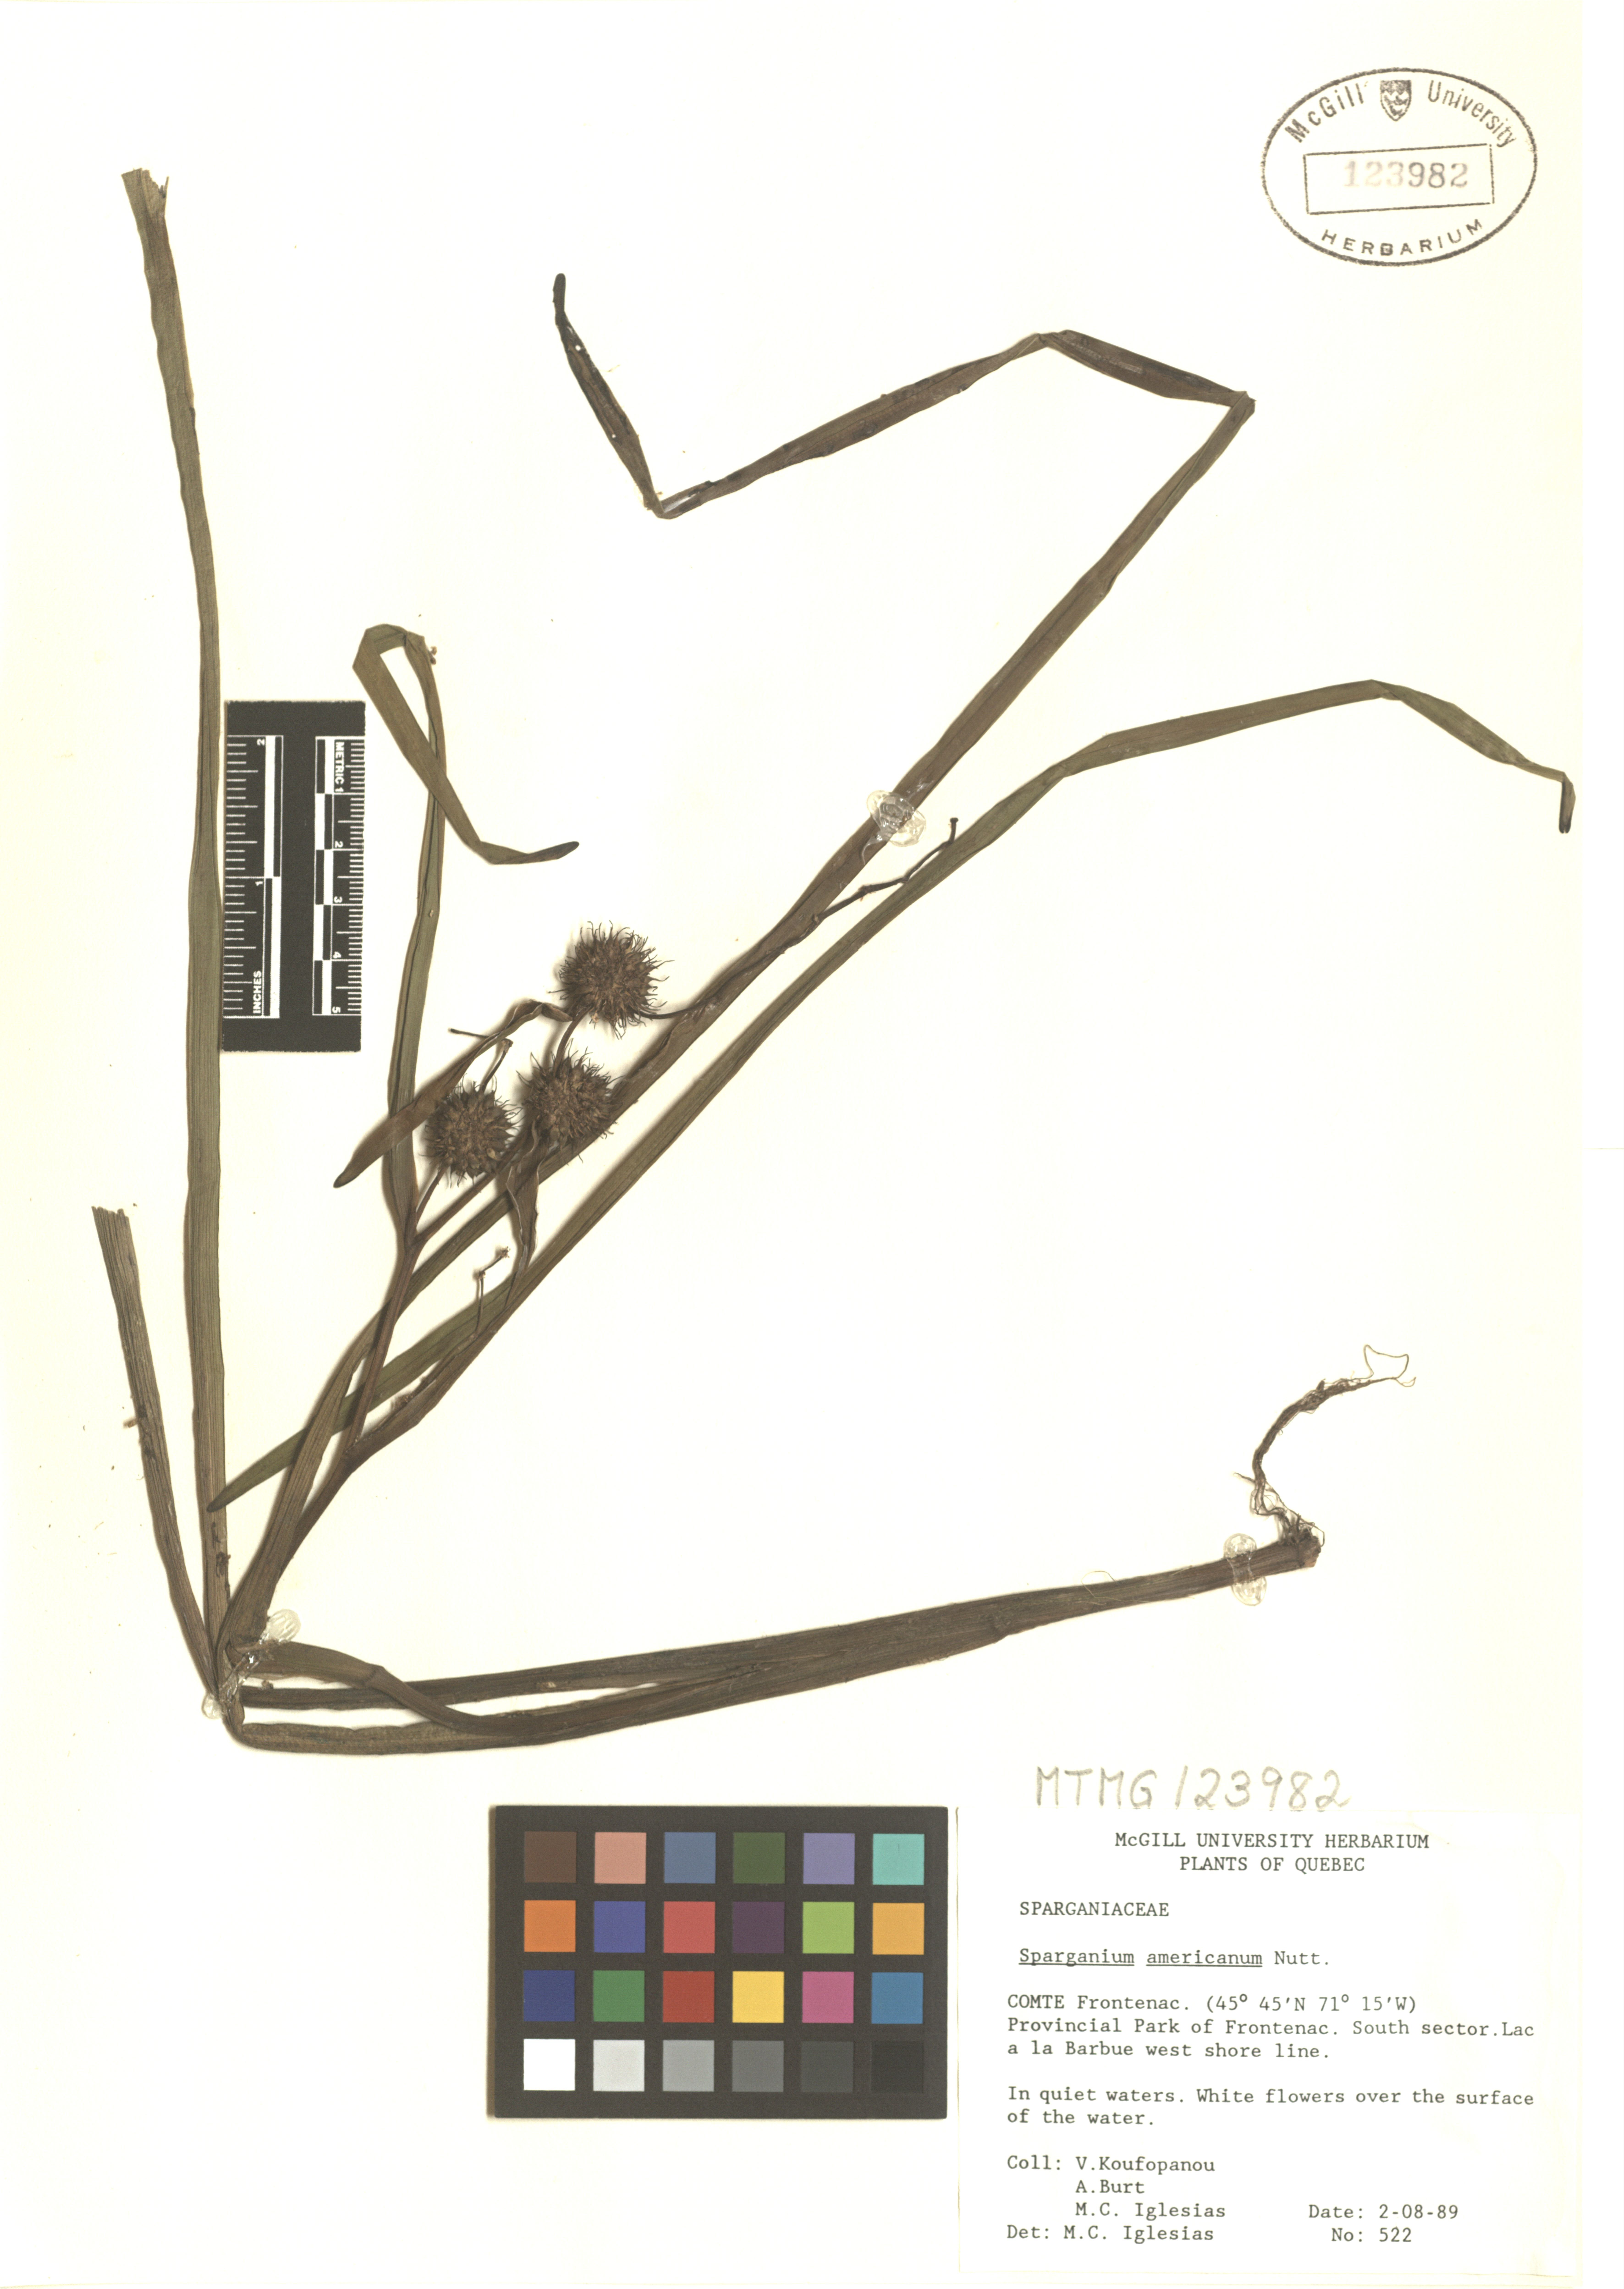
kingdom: Plantae
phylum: Tracheophyta
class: Liliopsida
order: Poales
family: Typhaceae
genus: Sparganium
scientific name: Sparganium americanum
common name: American burreed
